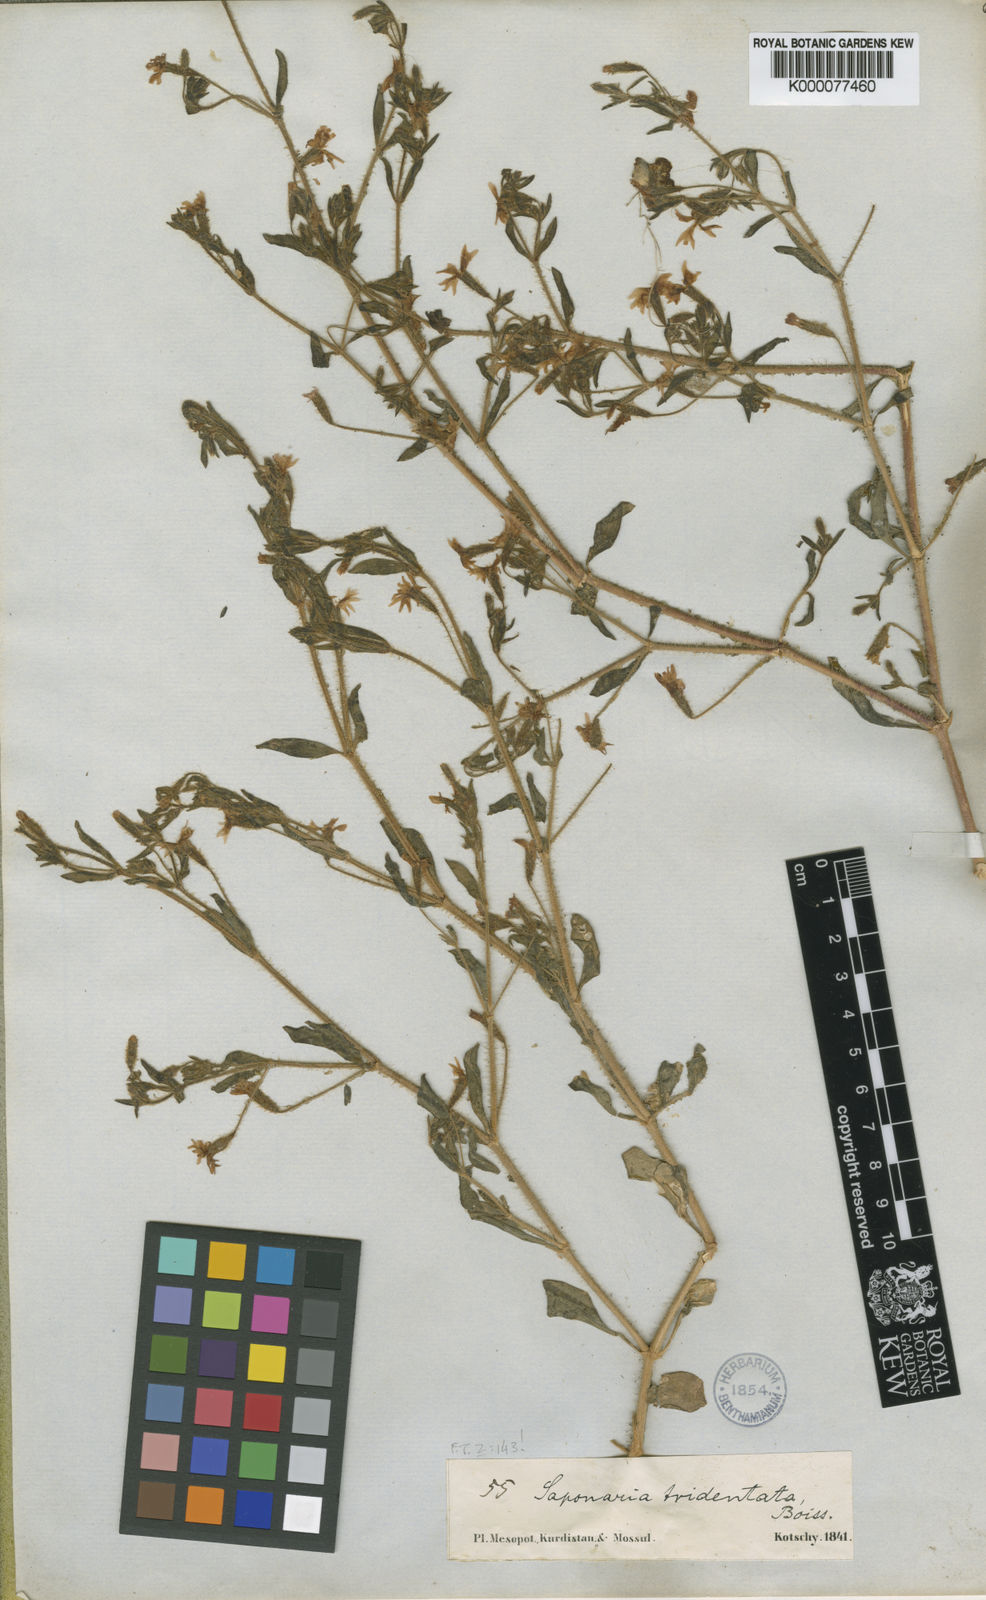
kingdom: Plantae
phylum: Tracheophyta
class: Magnoliopsida
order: Caryophyllales
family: Caryophyllaceae
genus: Saponaria
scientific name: Saponaria tridentata
